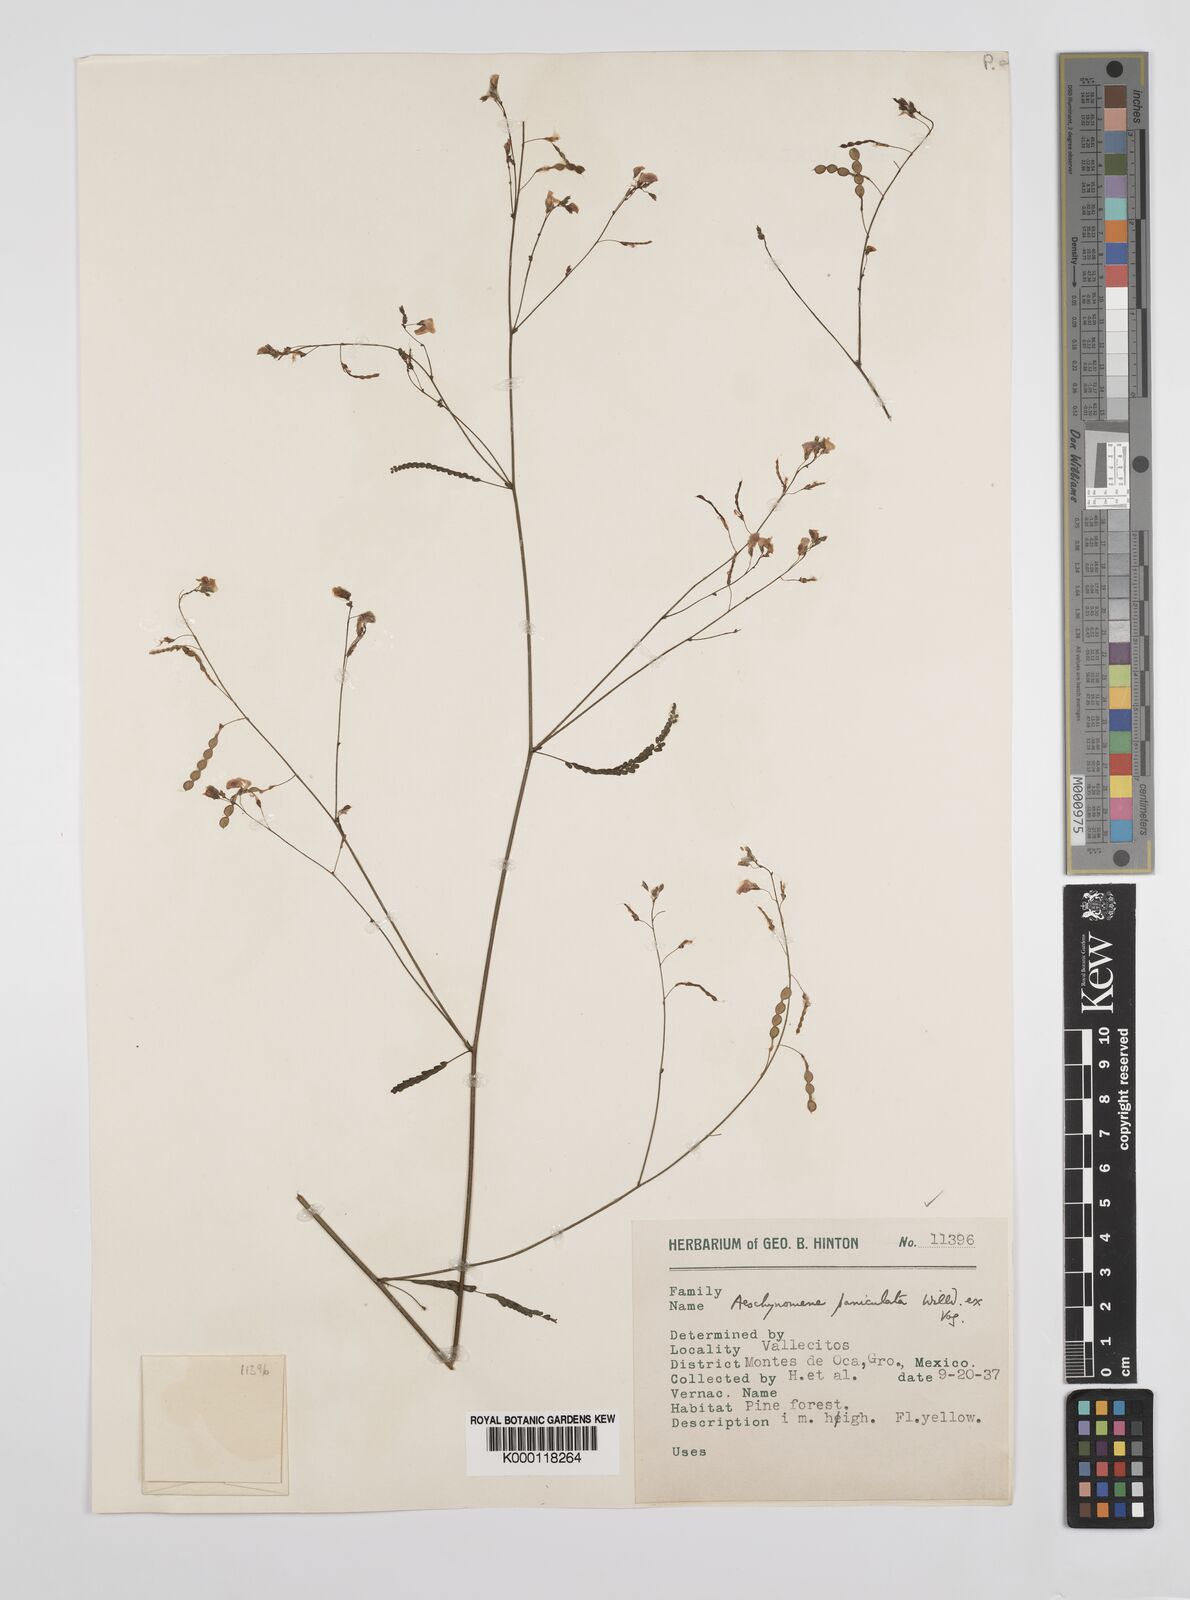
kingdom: Plantae
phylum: Tracheophyta
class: Magnoliopsida
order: Fabales
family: Fabaceae
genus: Ctenodon
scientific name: Ctenodon paniculatus
